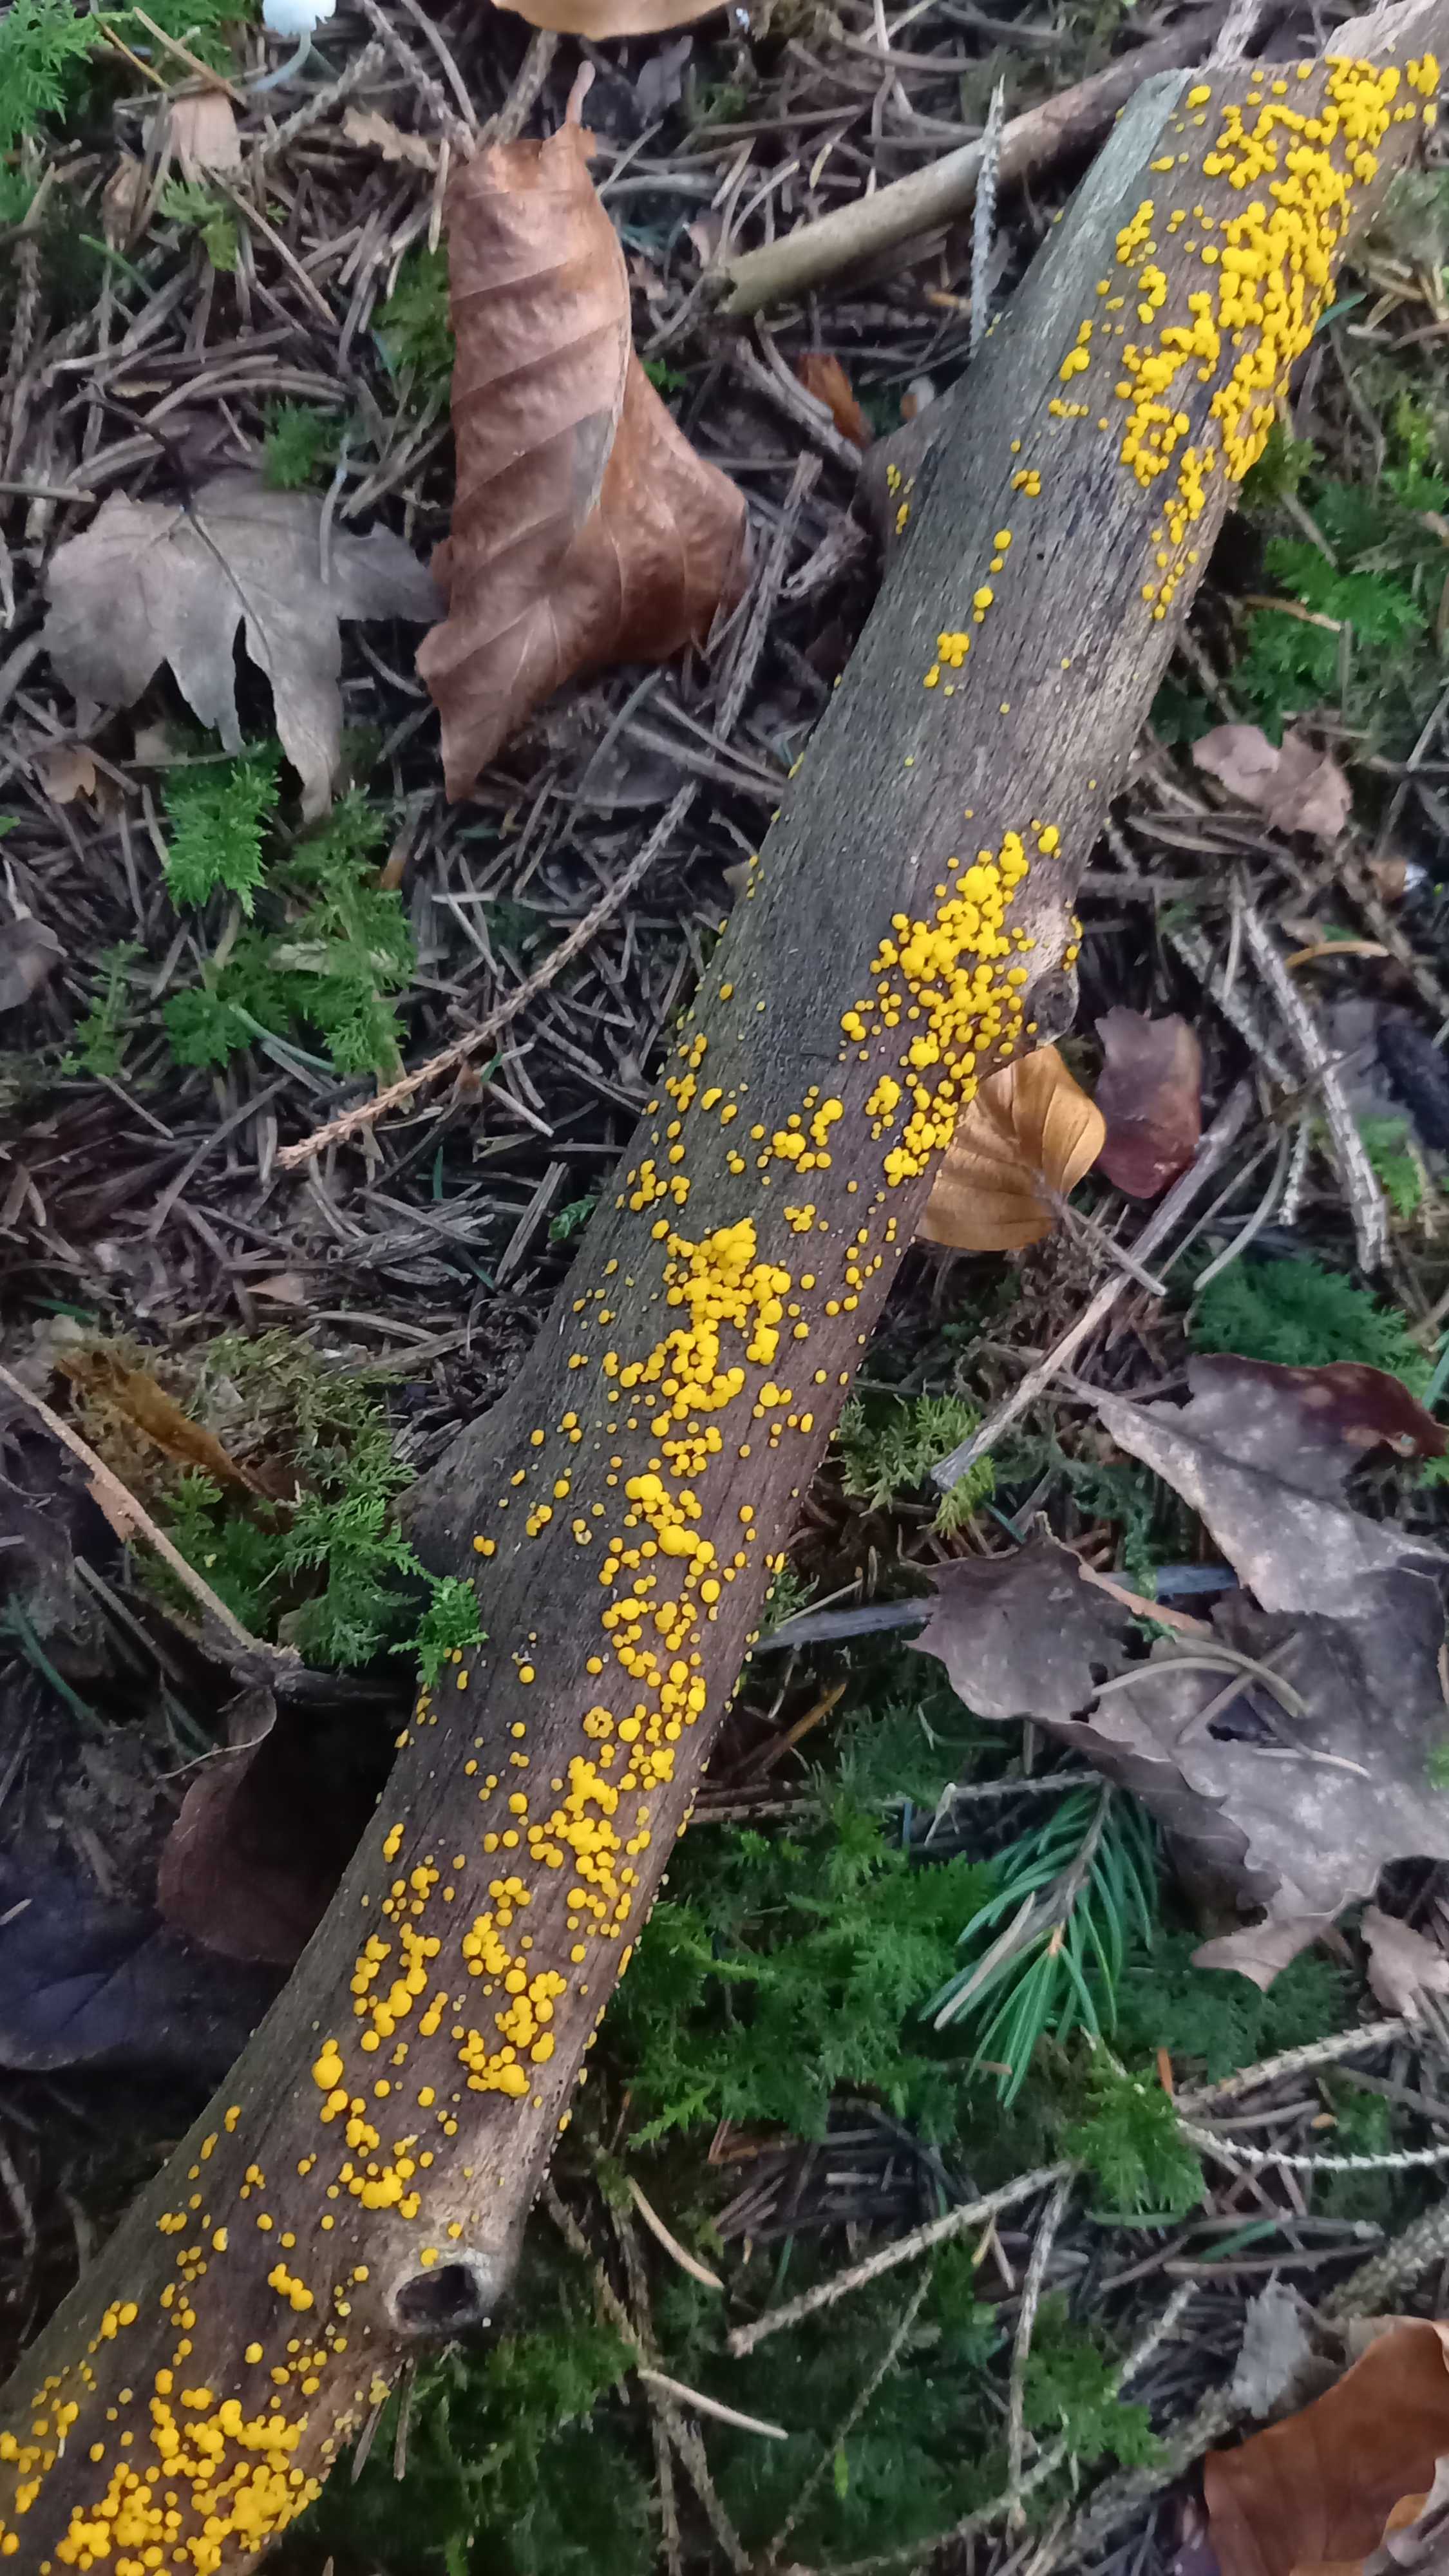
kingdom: Fungi
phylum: Ascomycota
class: Leotiomycetes
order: Helotiales
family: Pezizellaceae
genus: Calycina
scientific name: Calycina citrina
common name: almindelig gulskive
